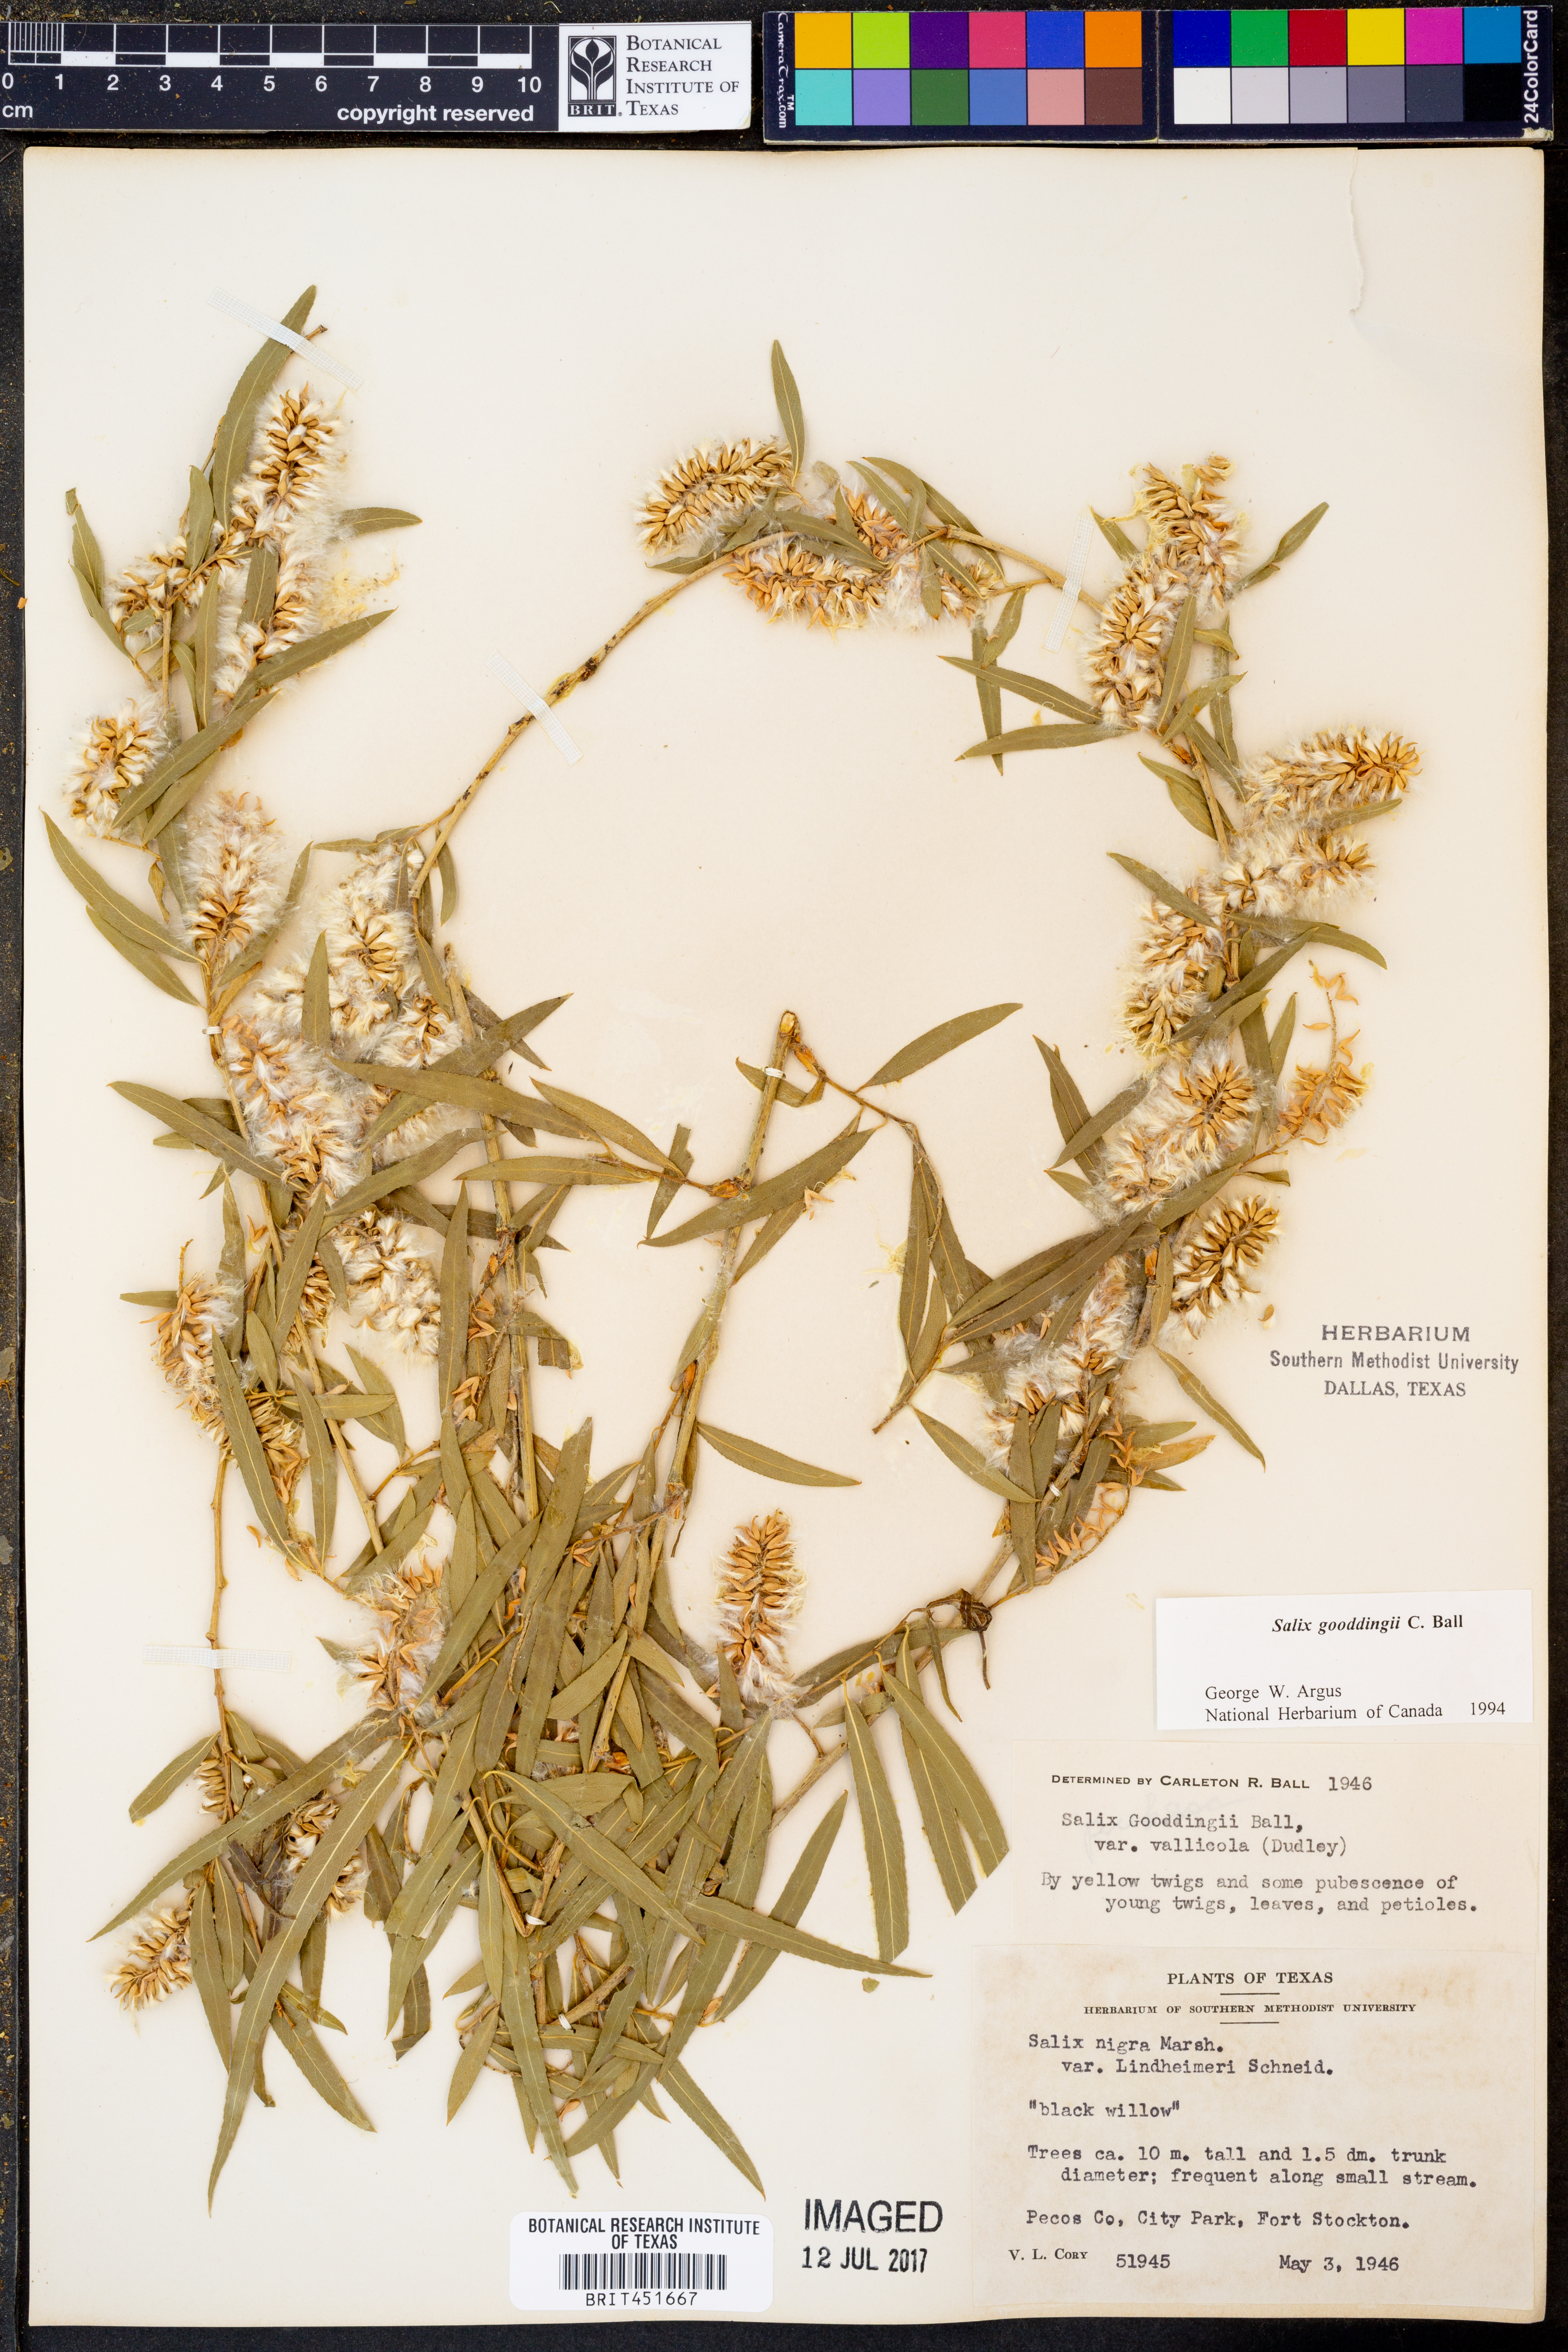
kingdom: Plantae
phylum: Tracheophyta
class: Magnoliopsida
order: Malpighiales
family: Salicaceae
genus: Salix
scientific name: Salix gooddingii
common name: Goodding's willow
